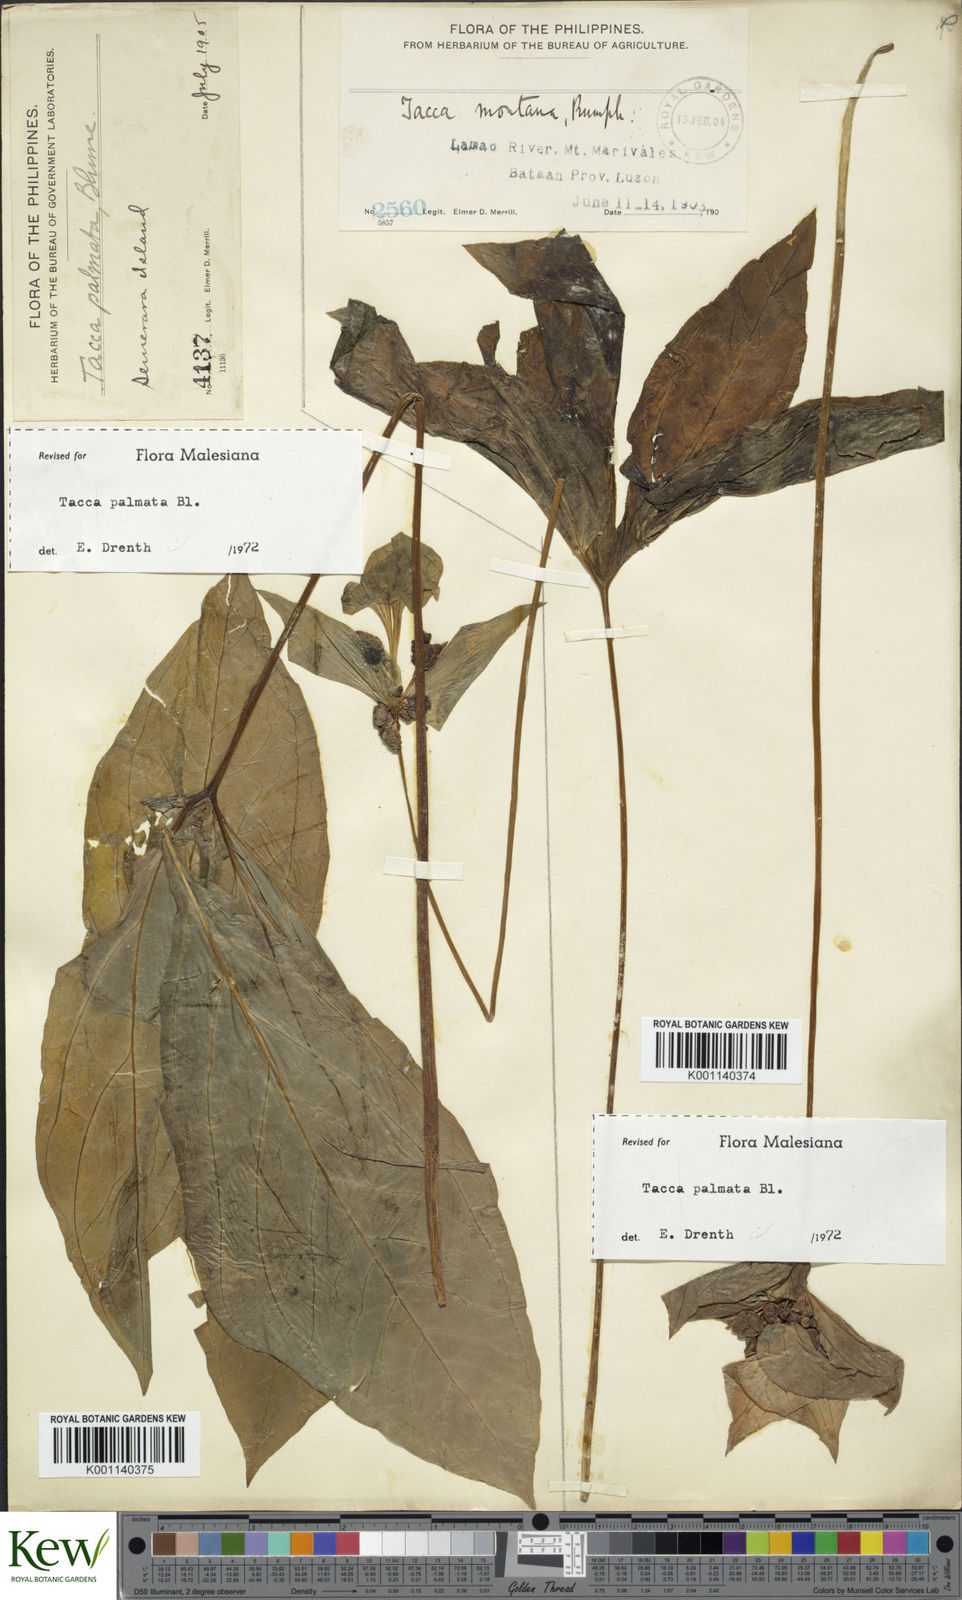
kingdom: Plantae
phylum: Tracheophyta
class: Liliopsida
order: Dioscoreales
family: Dioscoreaceae
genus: Tacca
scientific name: Tacca palmata
